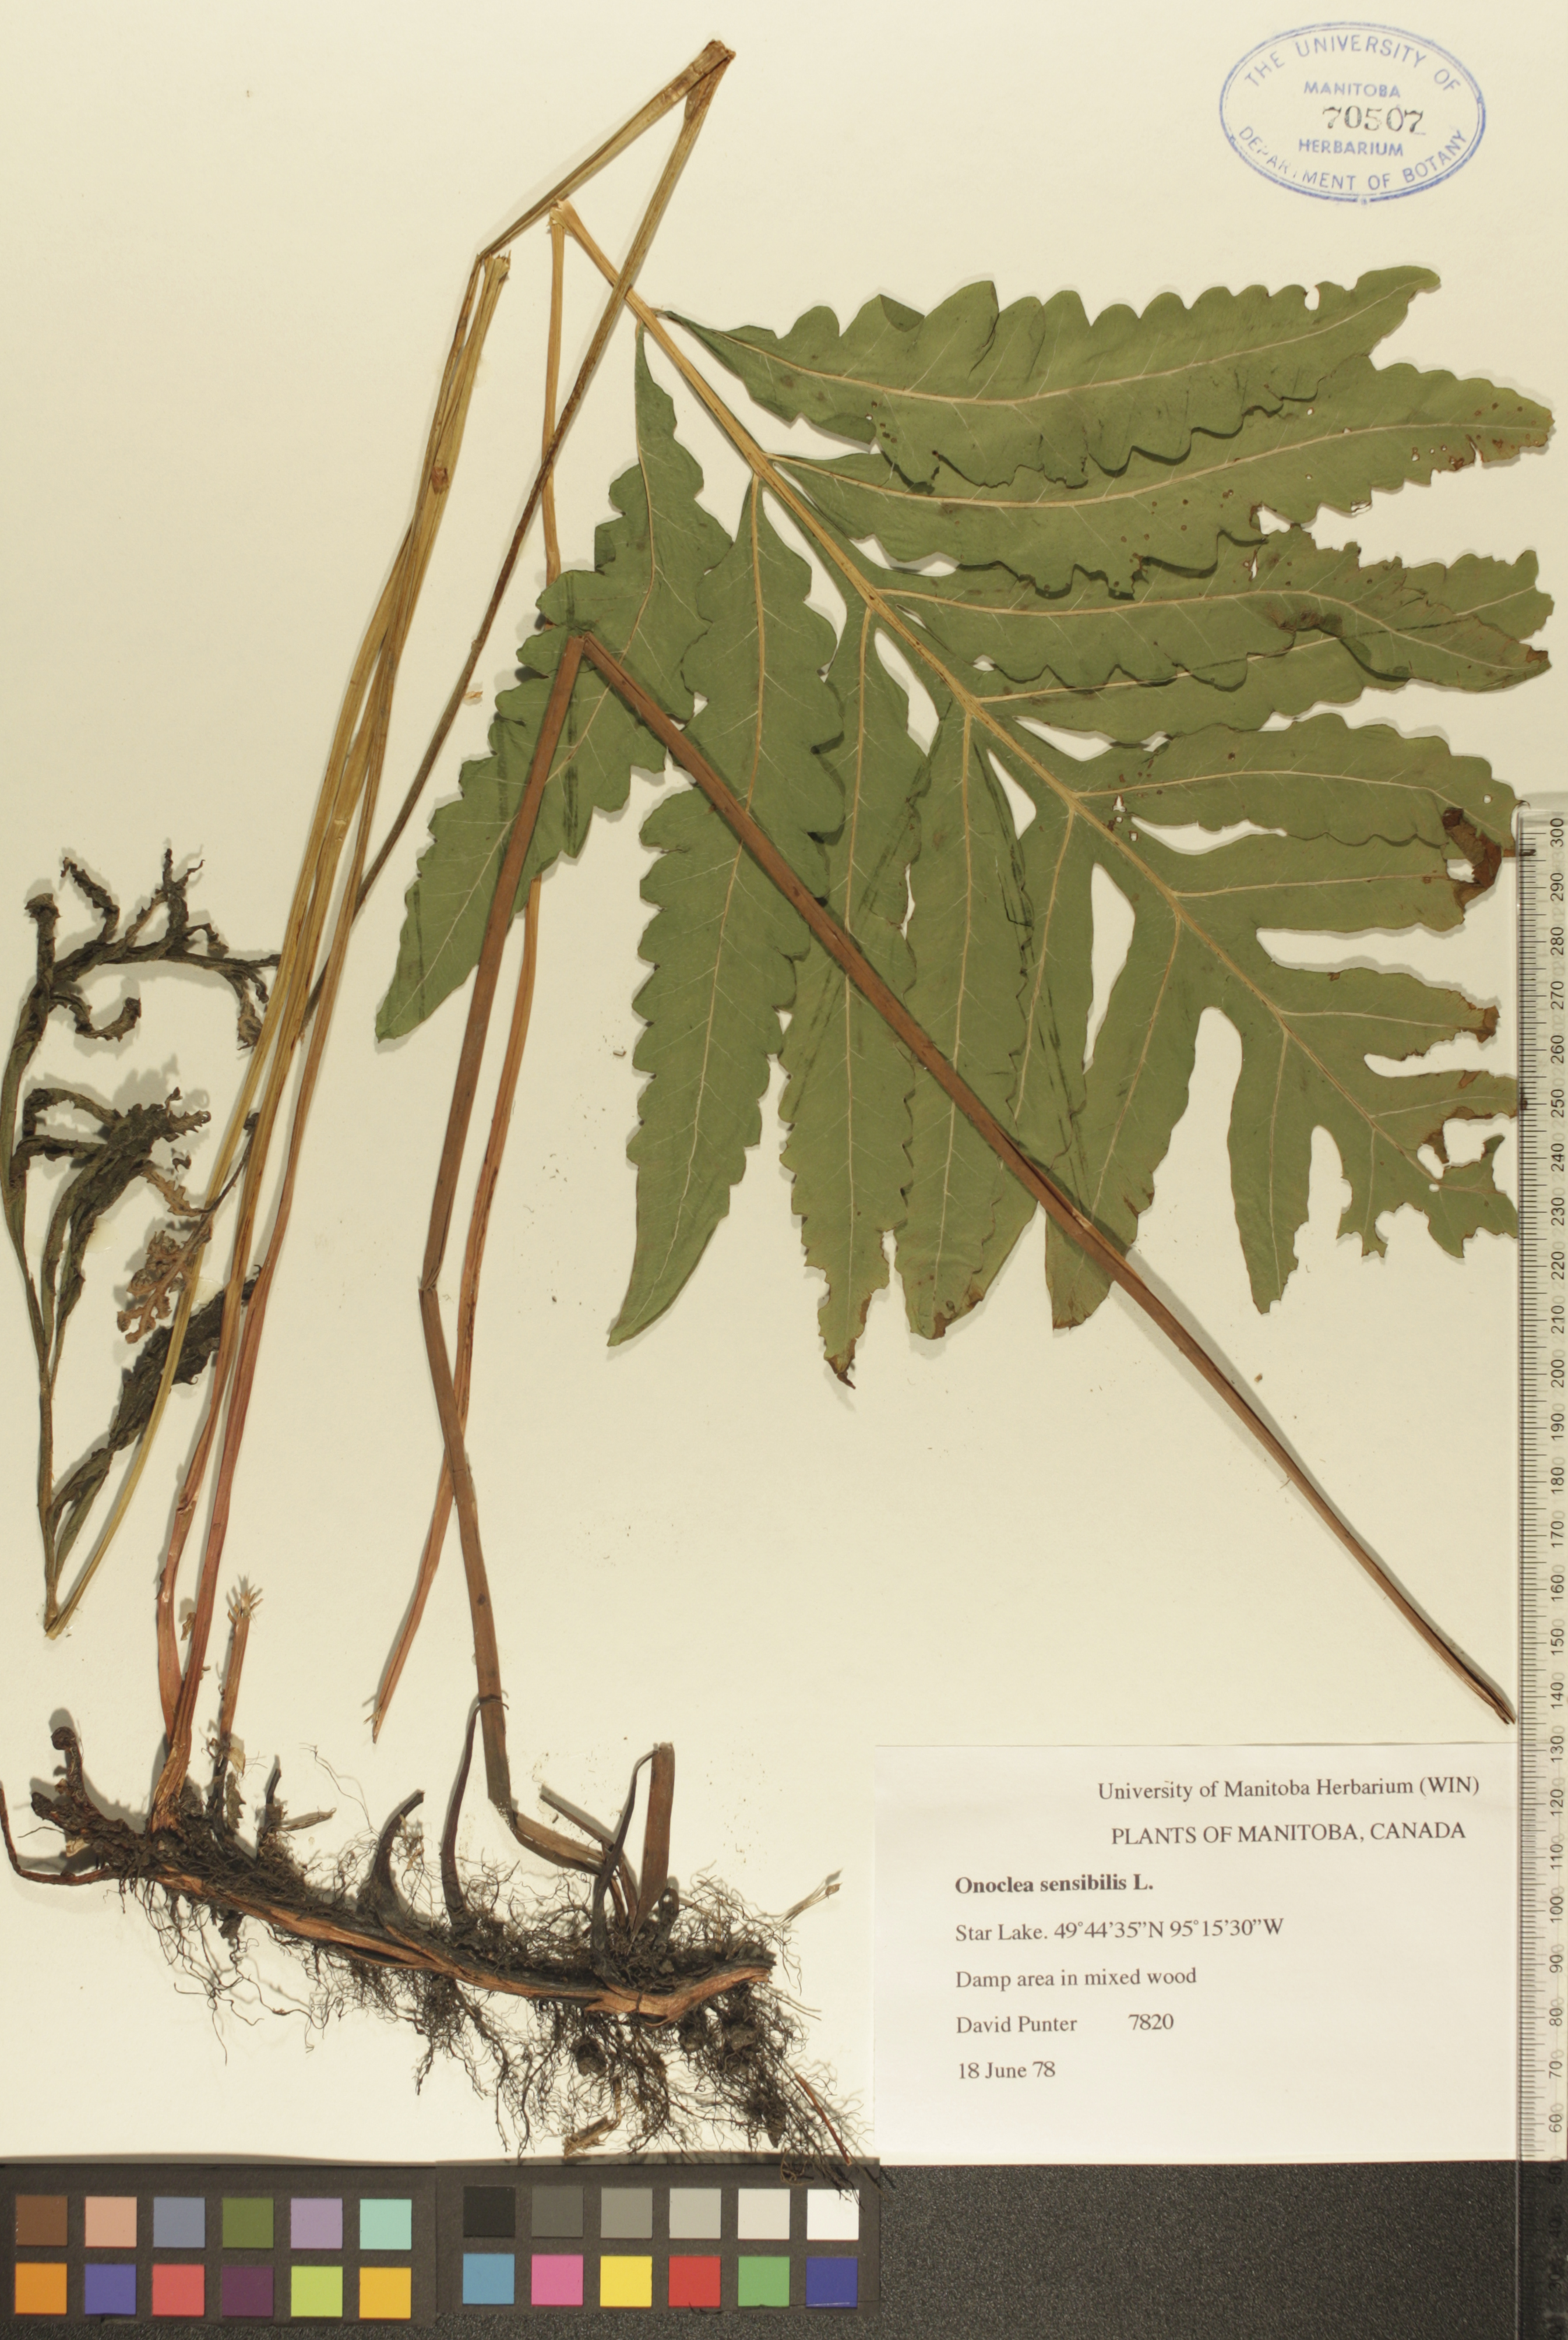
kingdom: Plantae
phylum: Tracheophyta
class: Polypodiopsida
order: Polypodiales
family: Onocleaceae
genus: Onoclea
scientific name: Onoclea sensibilis
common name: Sensitive fern
